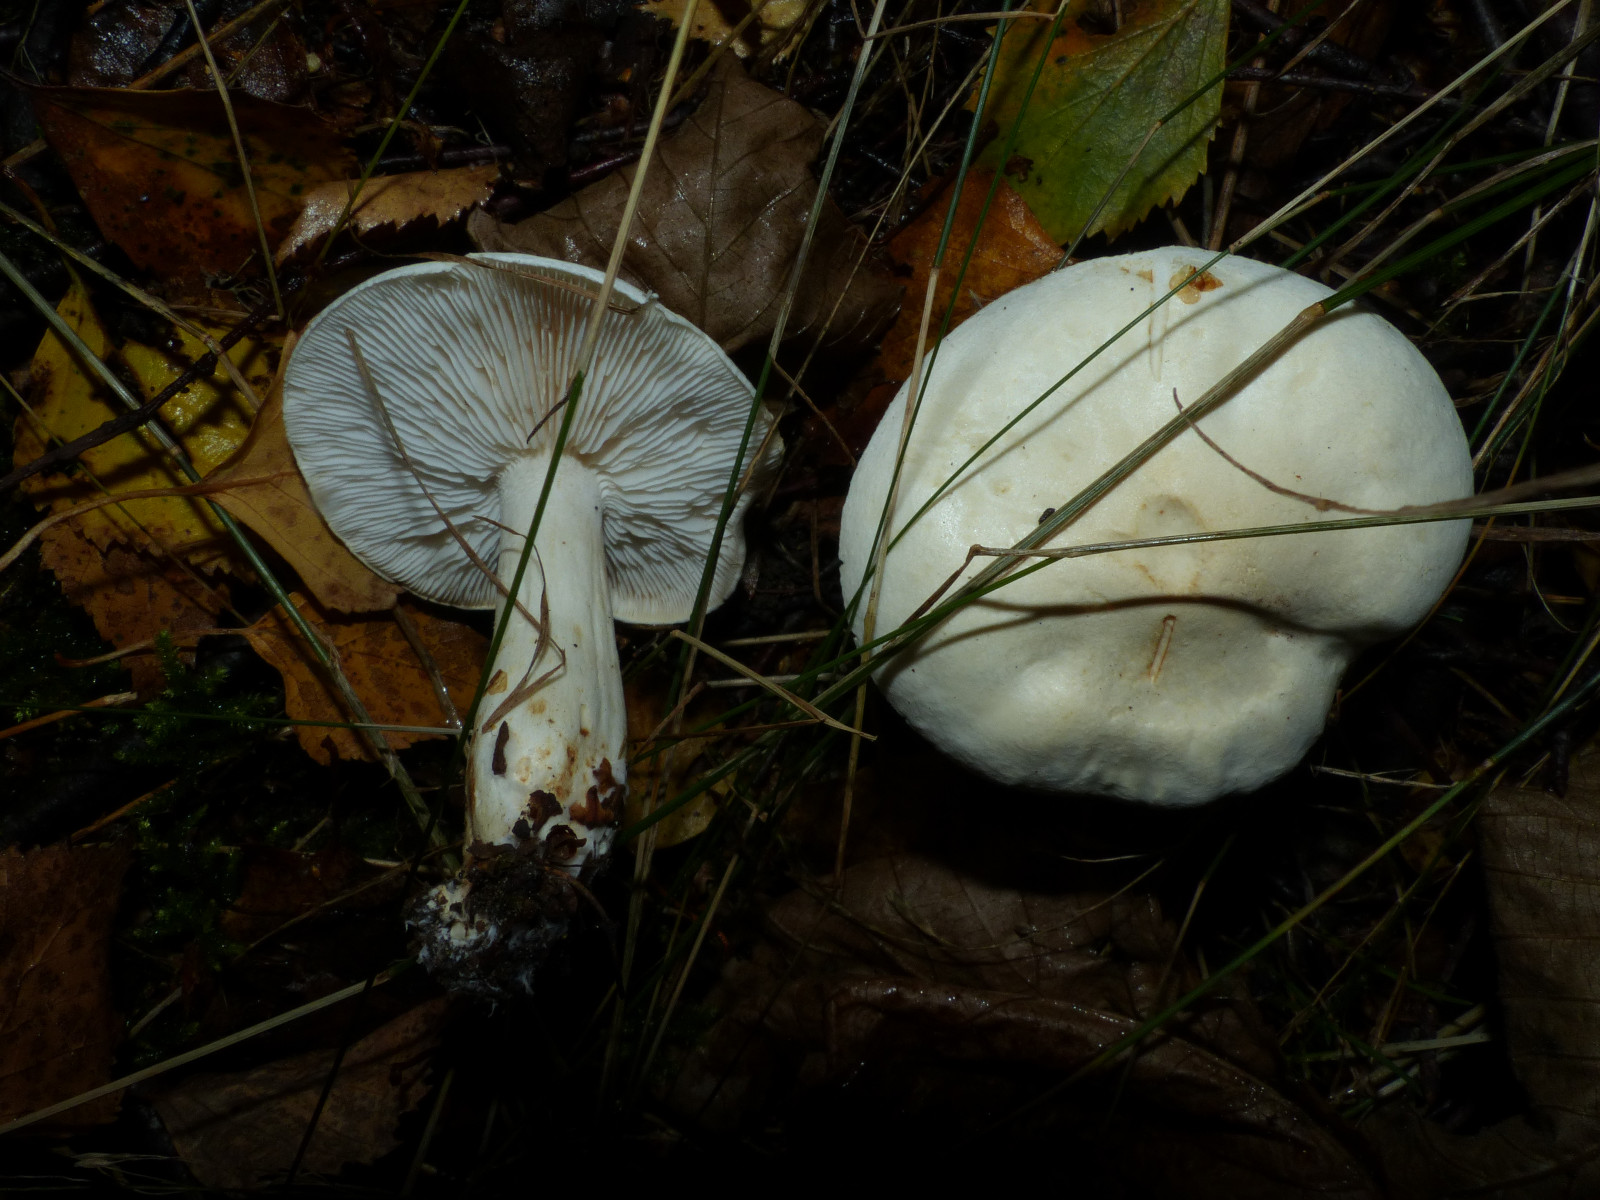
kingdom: Fungi
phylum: Basidiomycota
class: Agaricomycetes
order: Agaricales
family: Tricholomataceae
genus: Tricholoma
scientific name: Tricholoma stiparophyllum
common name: hvid ridderhat
